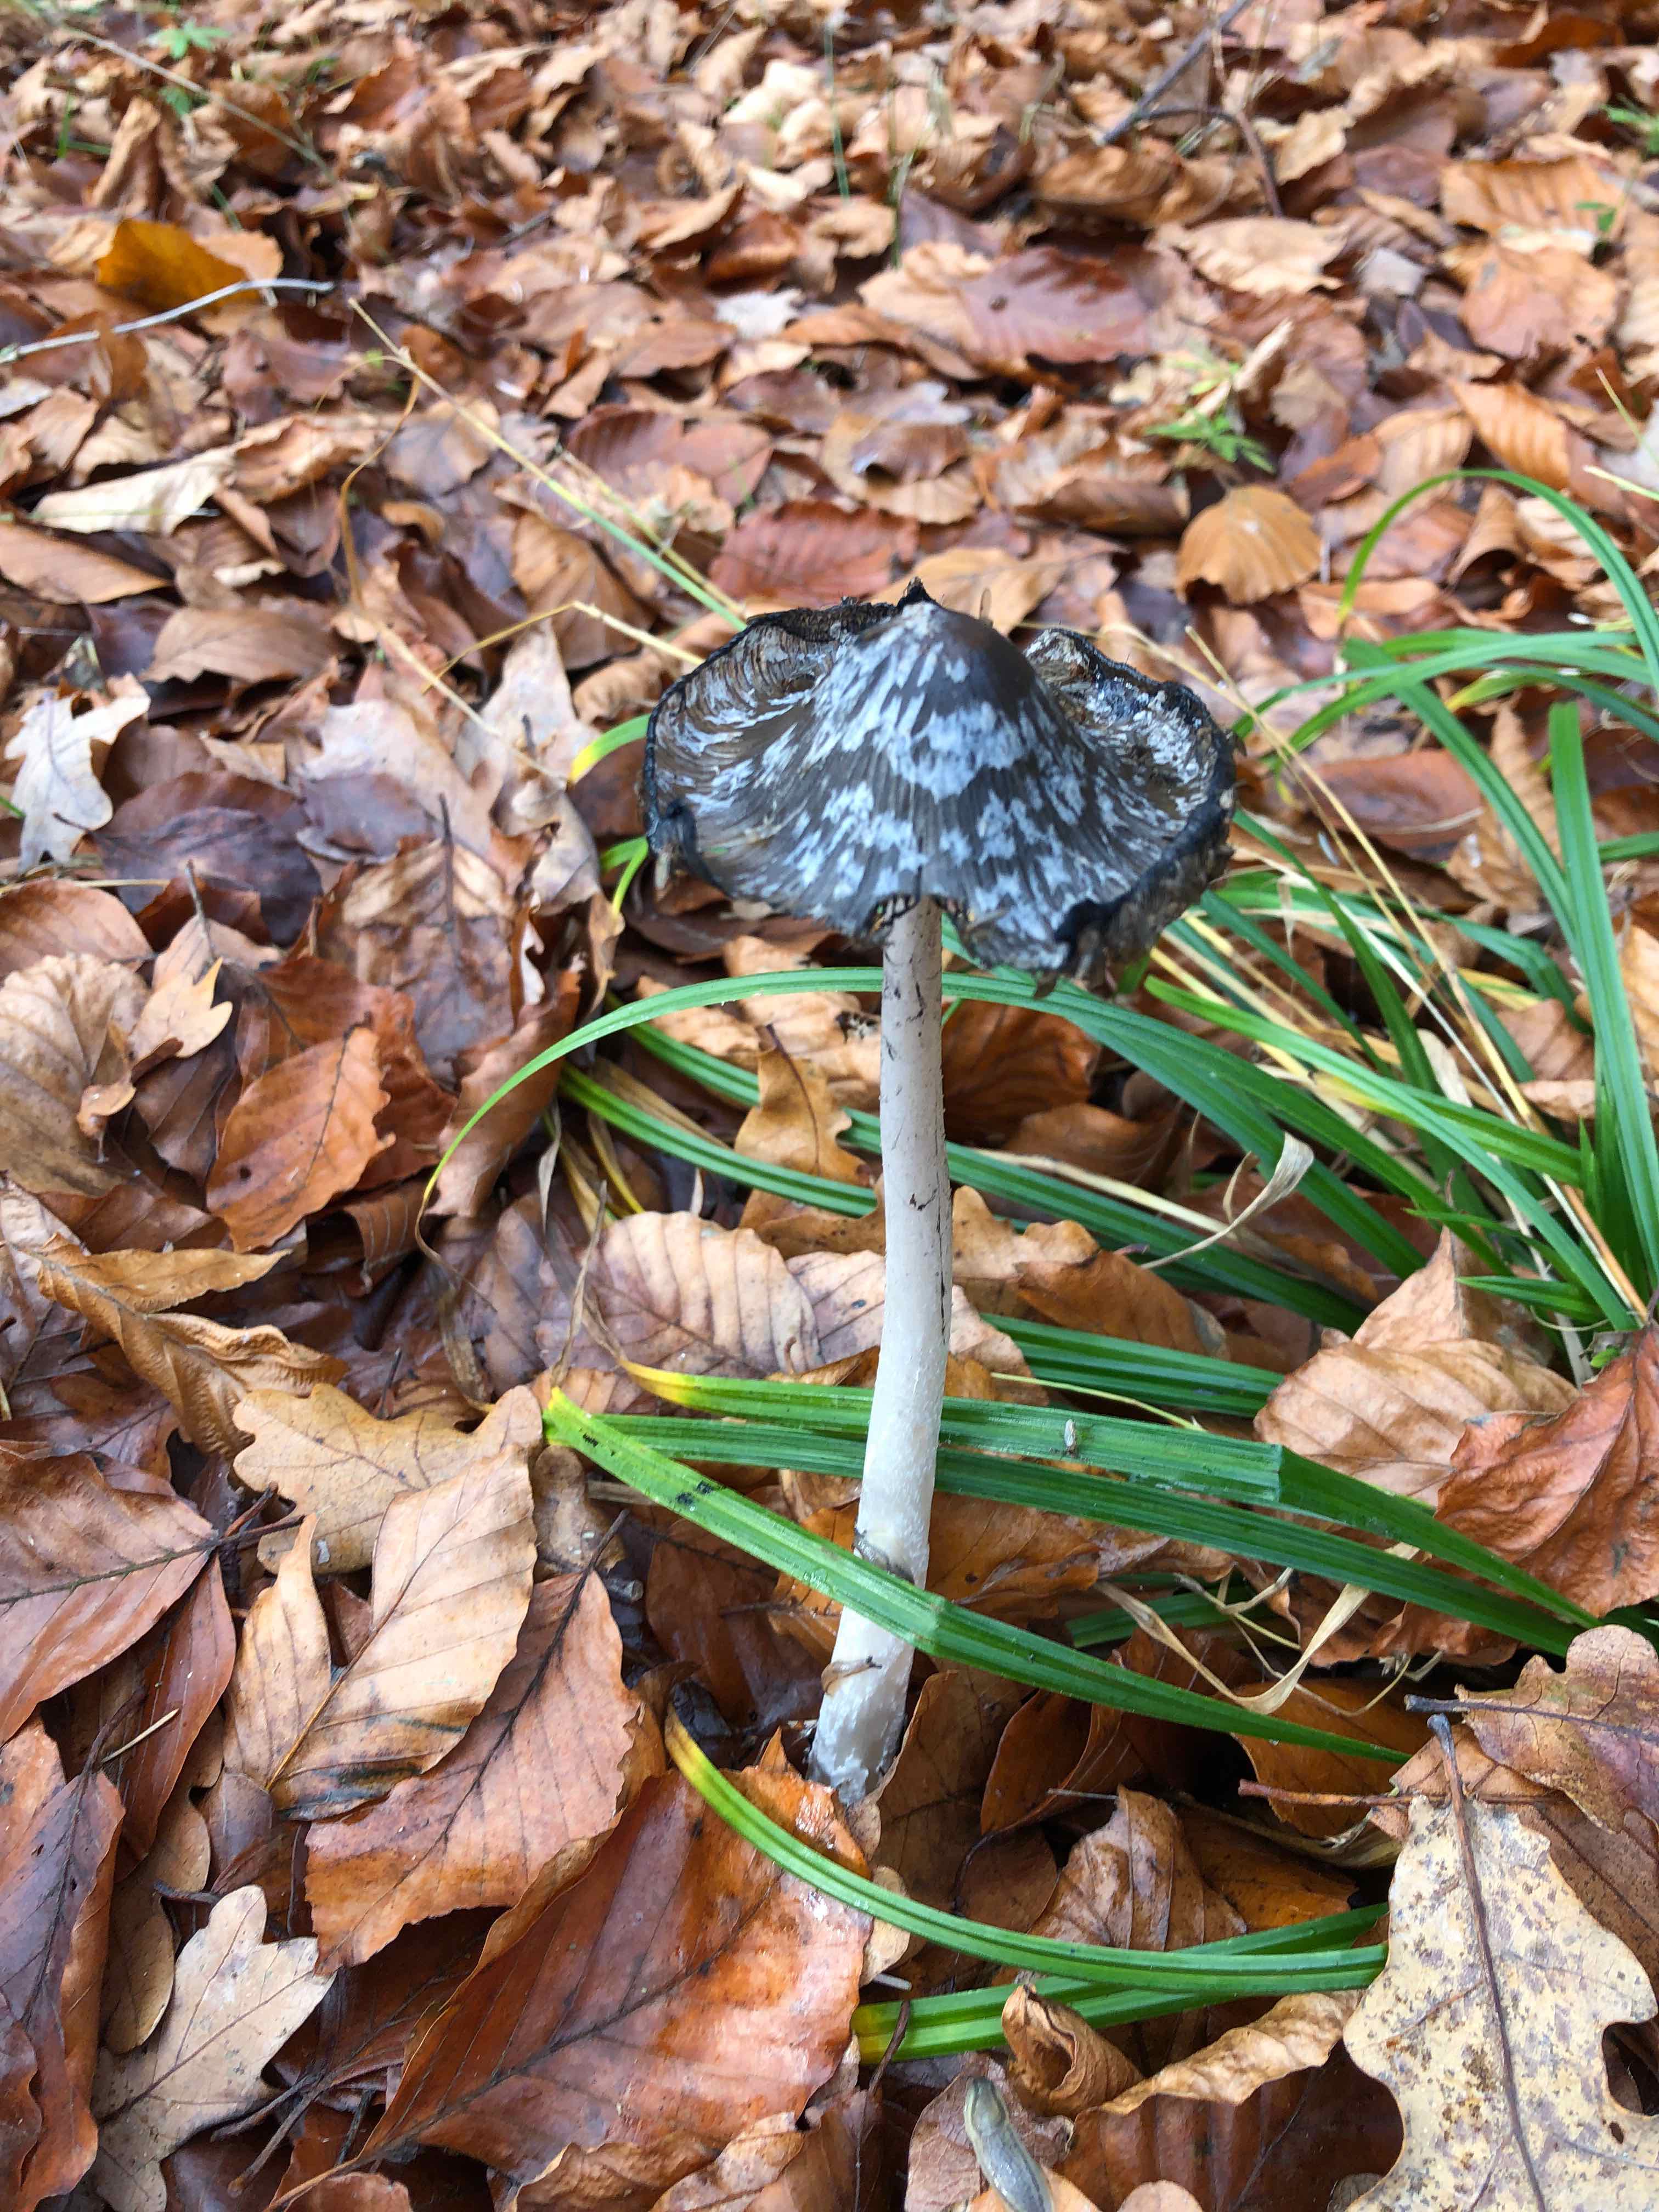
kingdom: Fungi
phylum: Basidiomycota
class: Agaricomycetes
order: Agaricales
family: Psathyrellaceae
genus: Coprinopsis
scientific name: Coprinopsis picacea
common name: skade-blækhat
